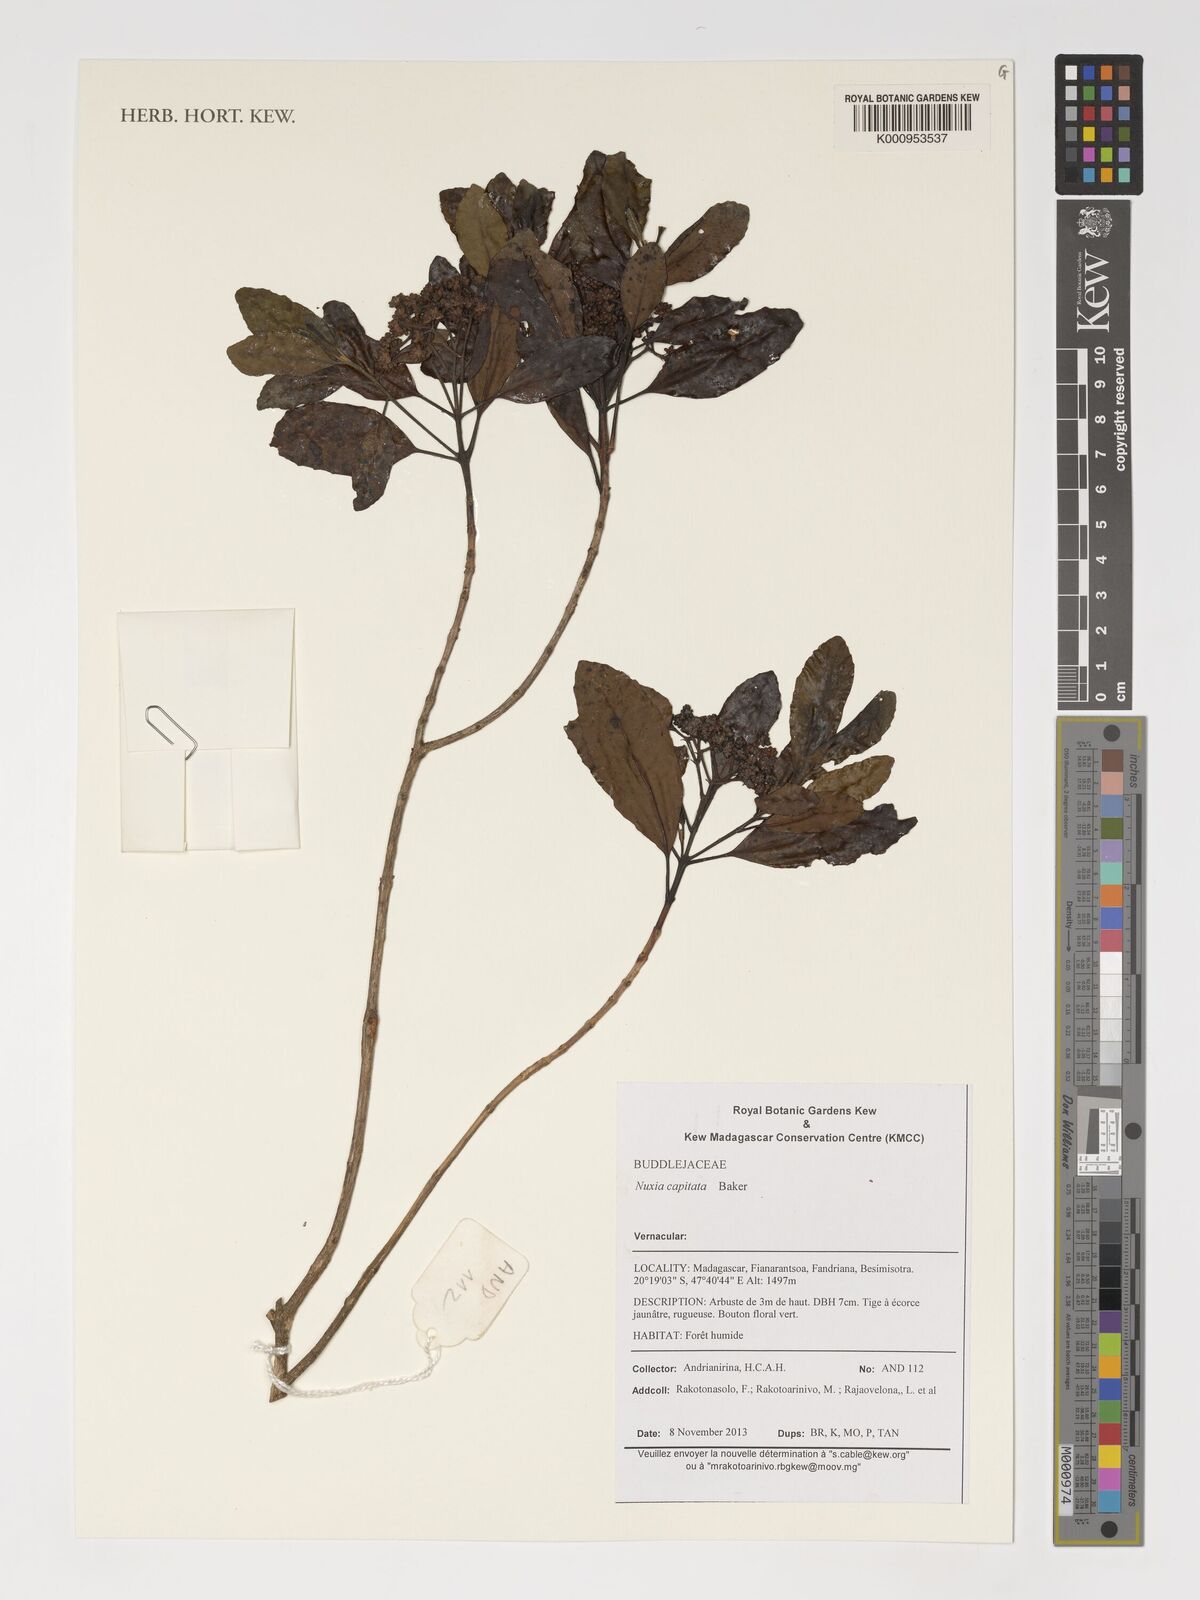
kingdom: Plantae
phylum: Tracheophyta
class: Magnoliopsida
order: Lamiales
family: Stilbaceae
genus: Nuxia
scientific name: Nuxia capitata
